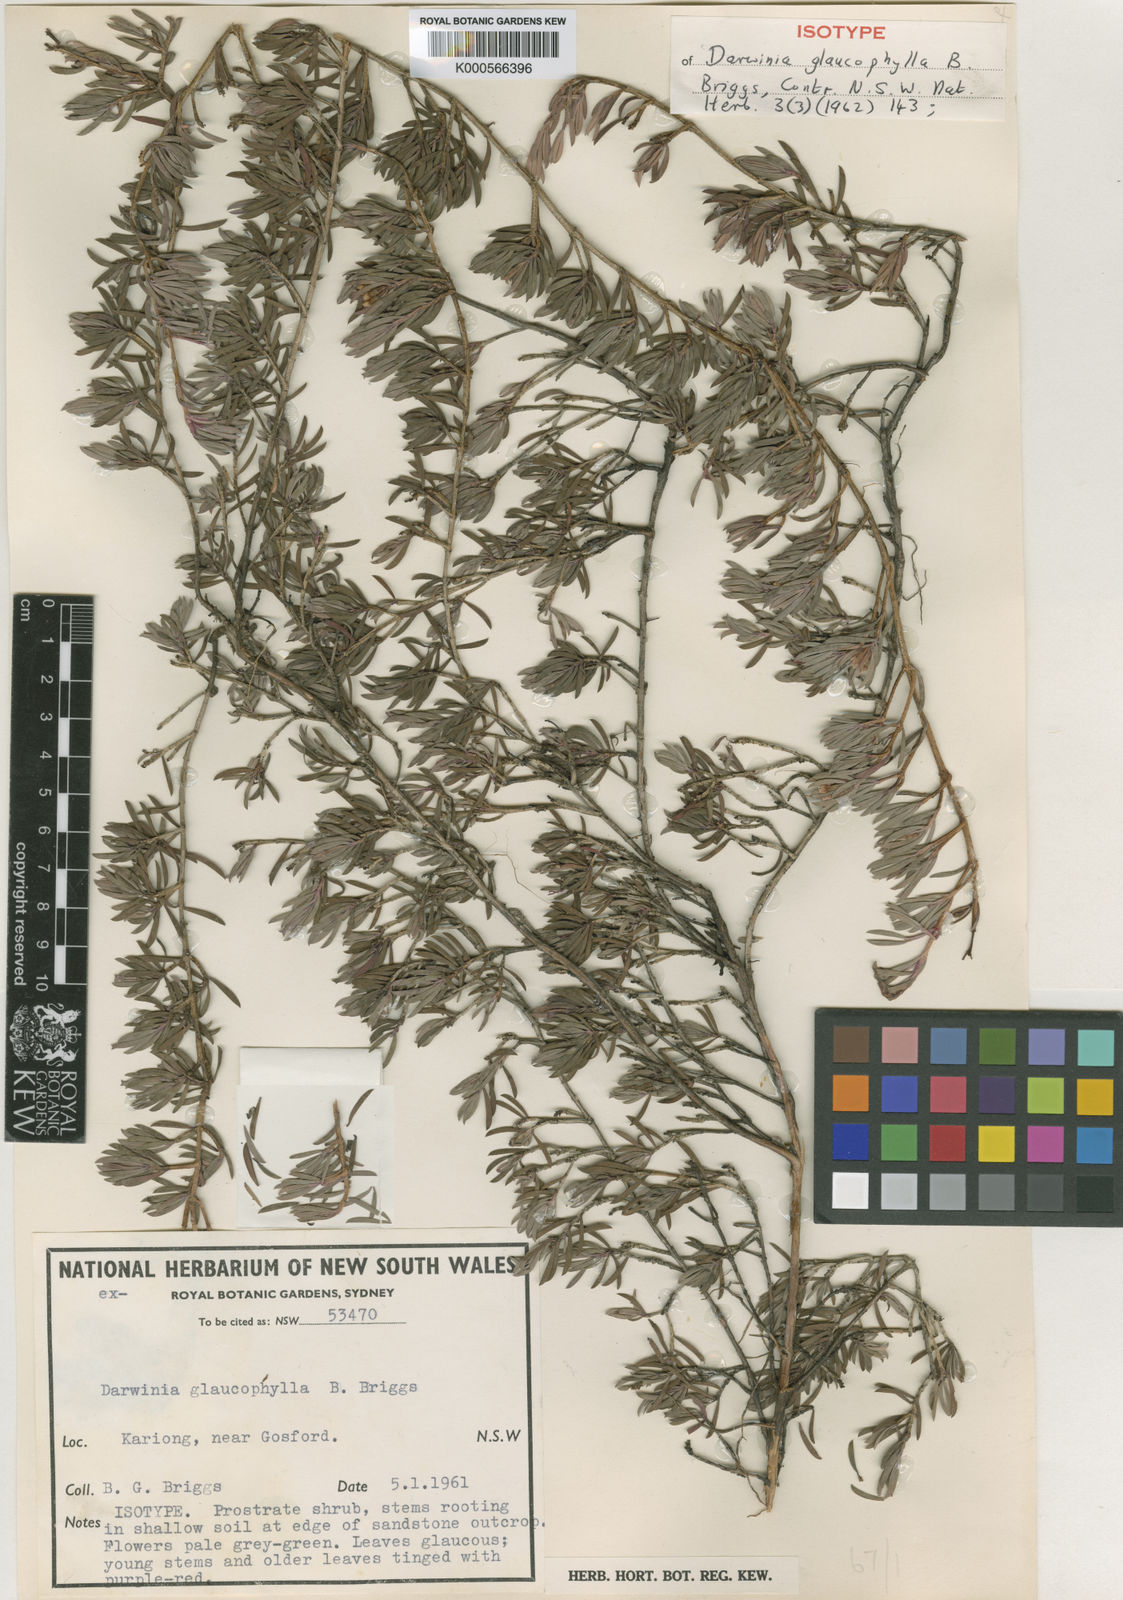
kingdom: Plantae
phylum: Tracheophyta
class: Magnoliopsida
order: Myrtales
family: Myrtaceae
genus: Darwinia
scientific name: Darwinia glaucophylla
